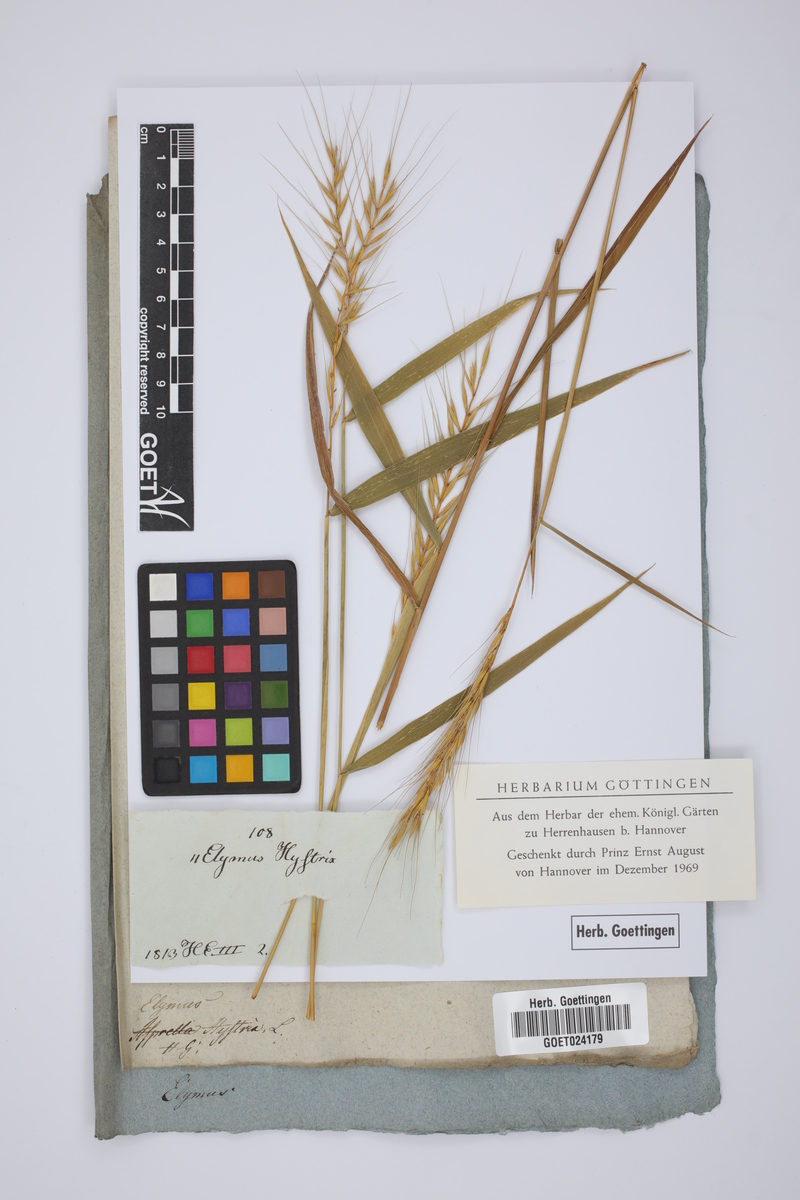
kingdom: Plantae
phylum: Tracheophyta
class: Liliopsida
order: Poales
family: Poaceae
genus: Elymus
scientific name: Elymus hystrix
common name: Bottlebrush grass
